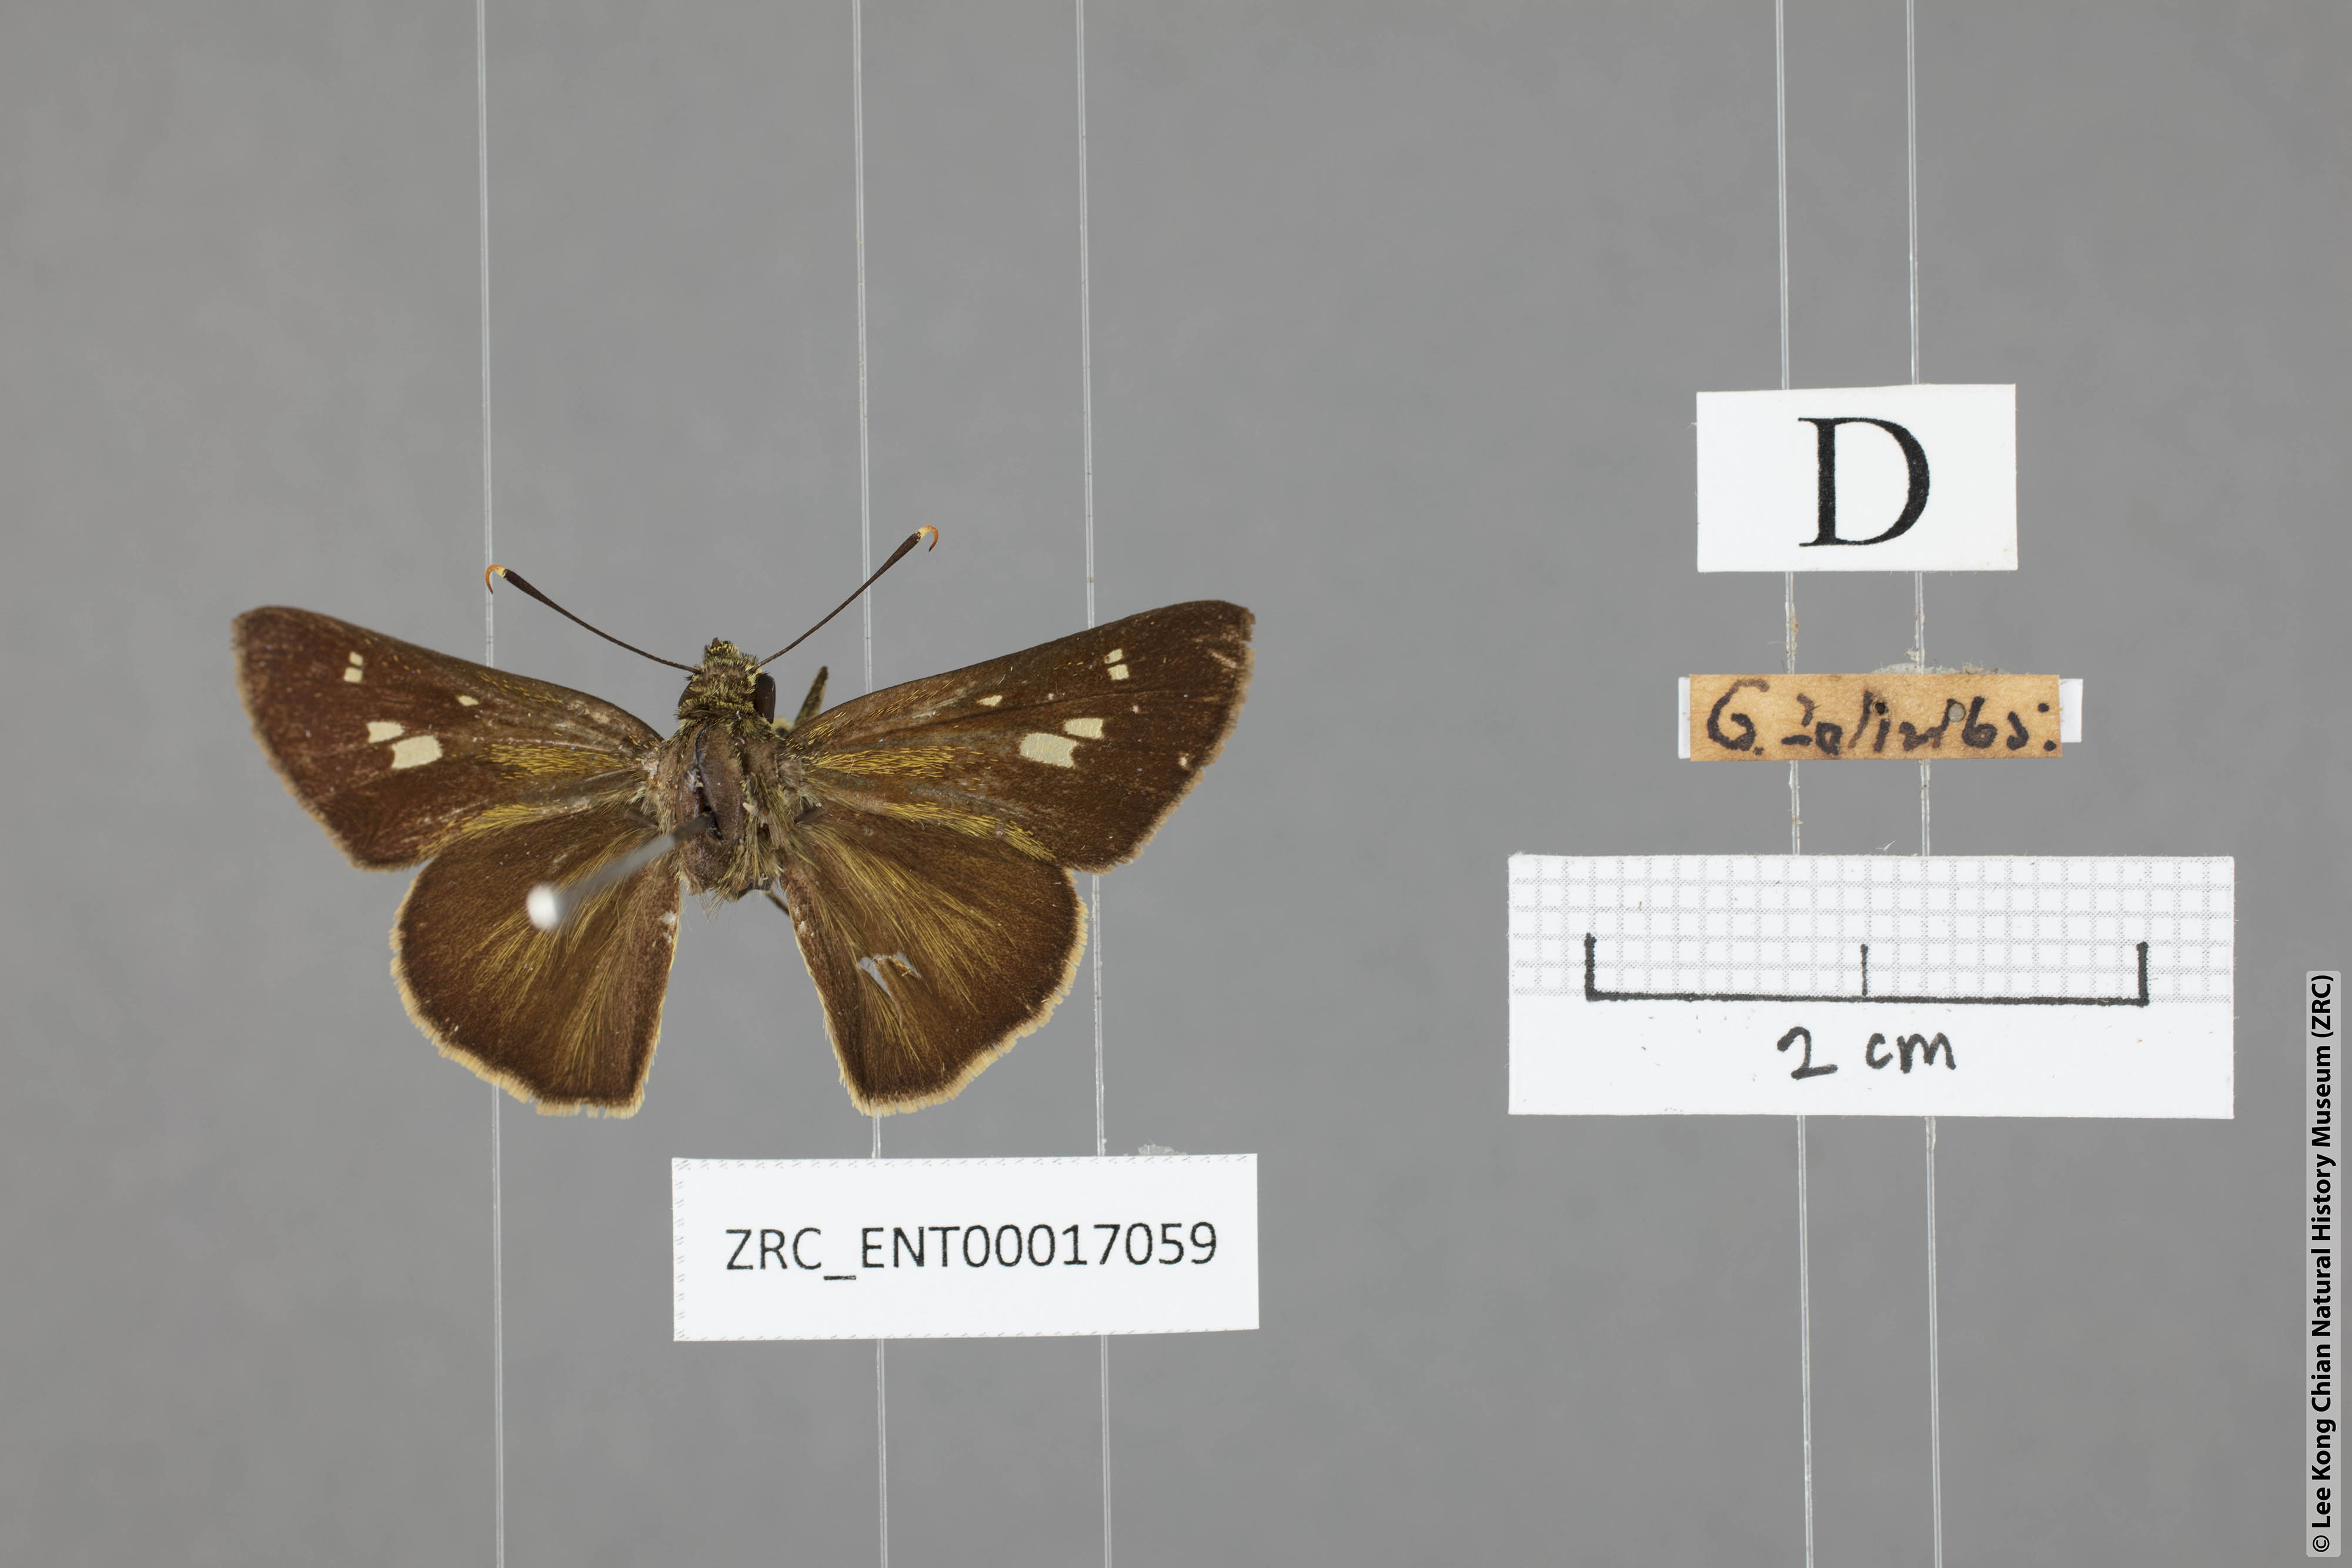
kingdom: Animalia
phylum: Arthropoda
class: Insecta
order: Lepidoptera
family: Hesperiidae
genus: Halpe
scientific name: Halpe sikkima
